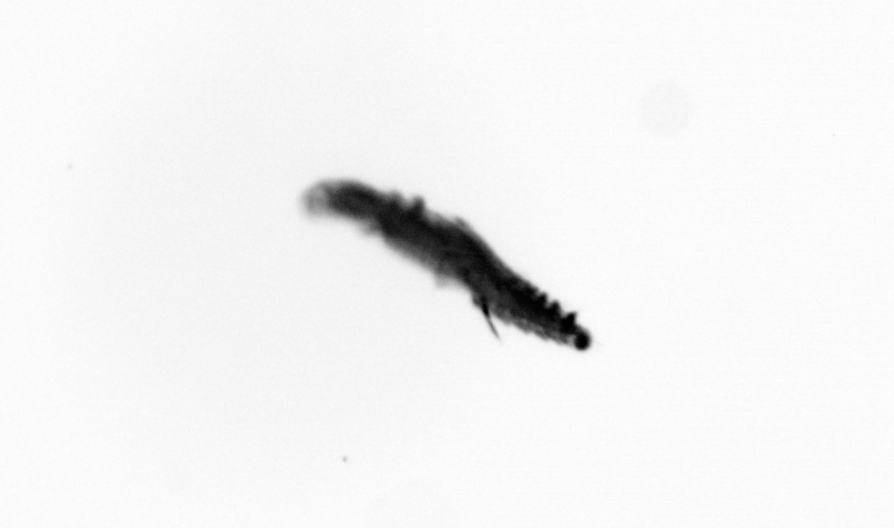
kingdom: Animalia
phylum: Annelida
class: Polychaeta
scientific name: Polychaeta
